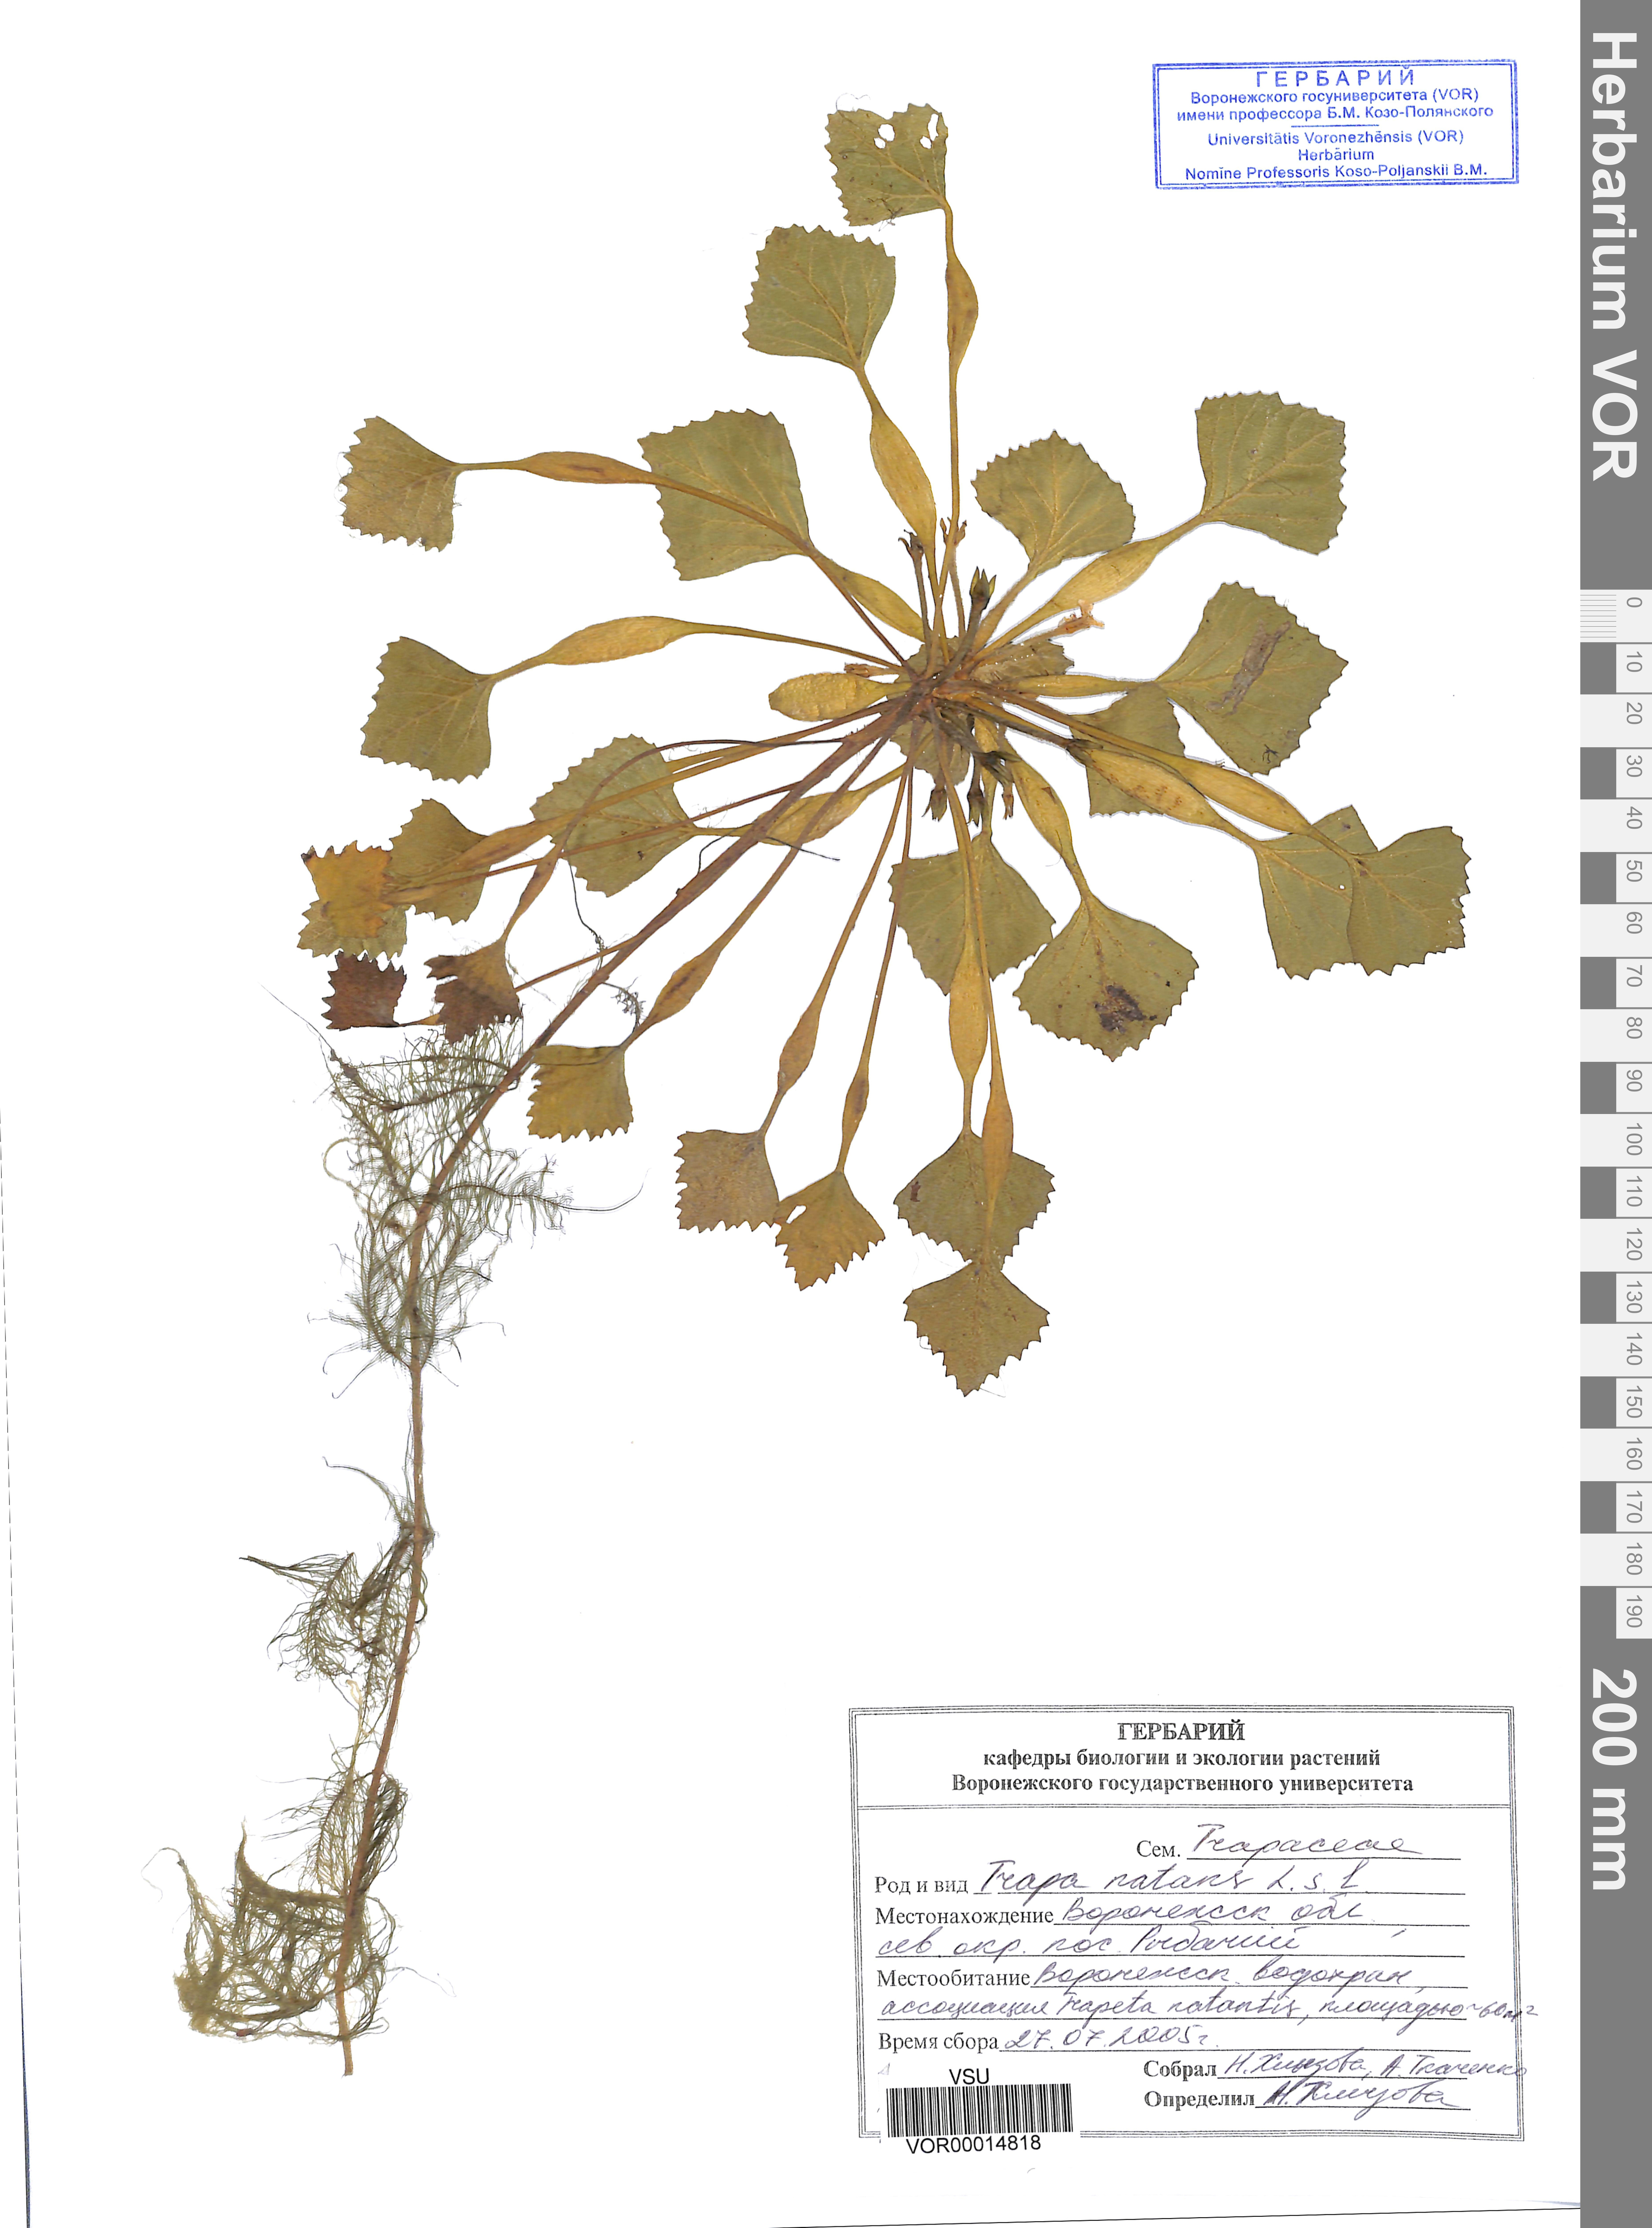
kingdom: Plantae
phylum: Tracheophyta
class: Magnoliopsida
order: Myrtales
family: Lythraceae
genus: Trapa
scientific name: Trapa natans
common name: Water chestnut
